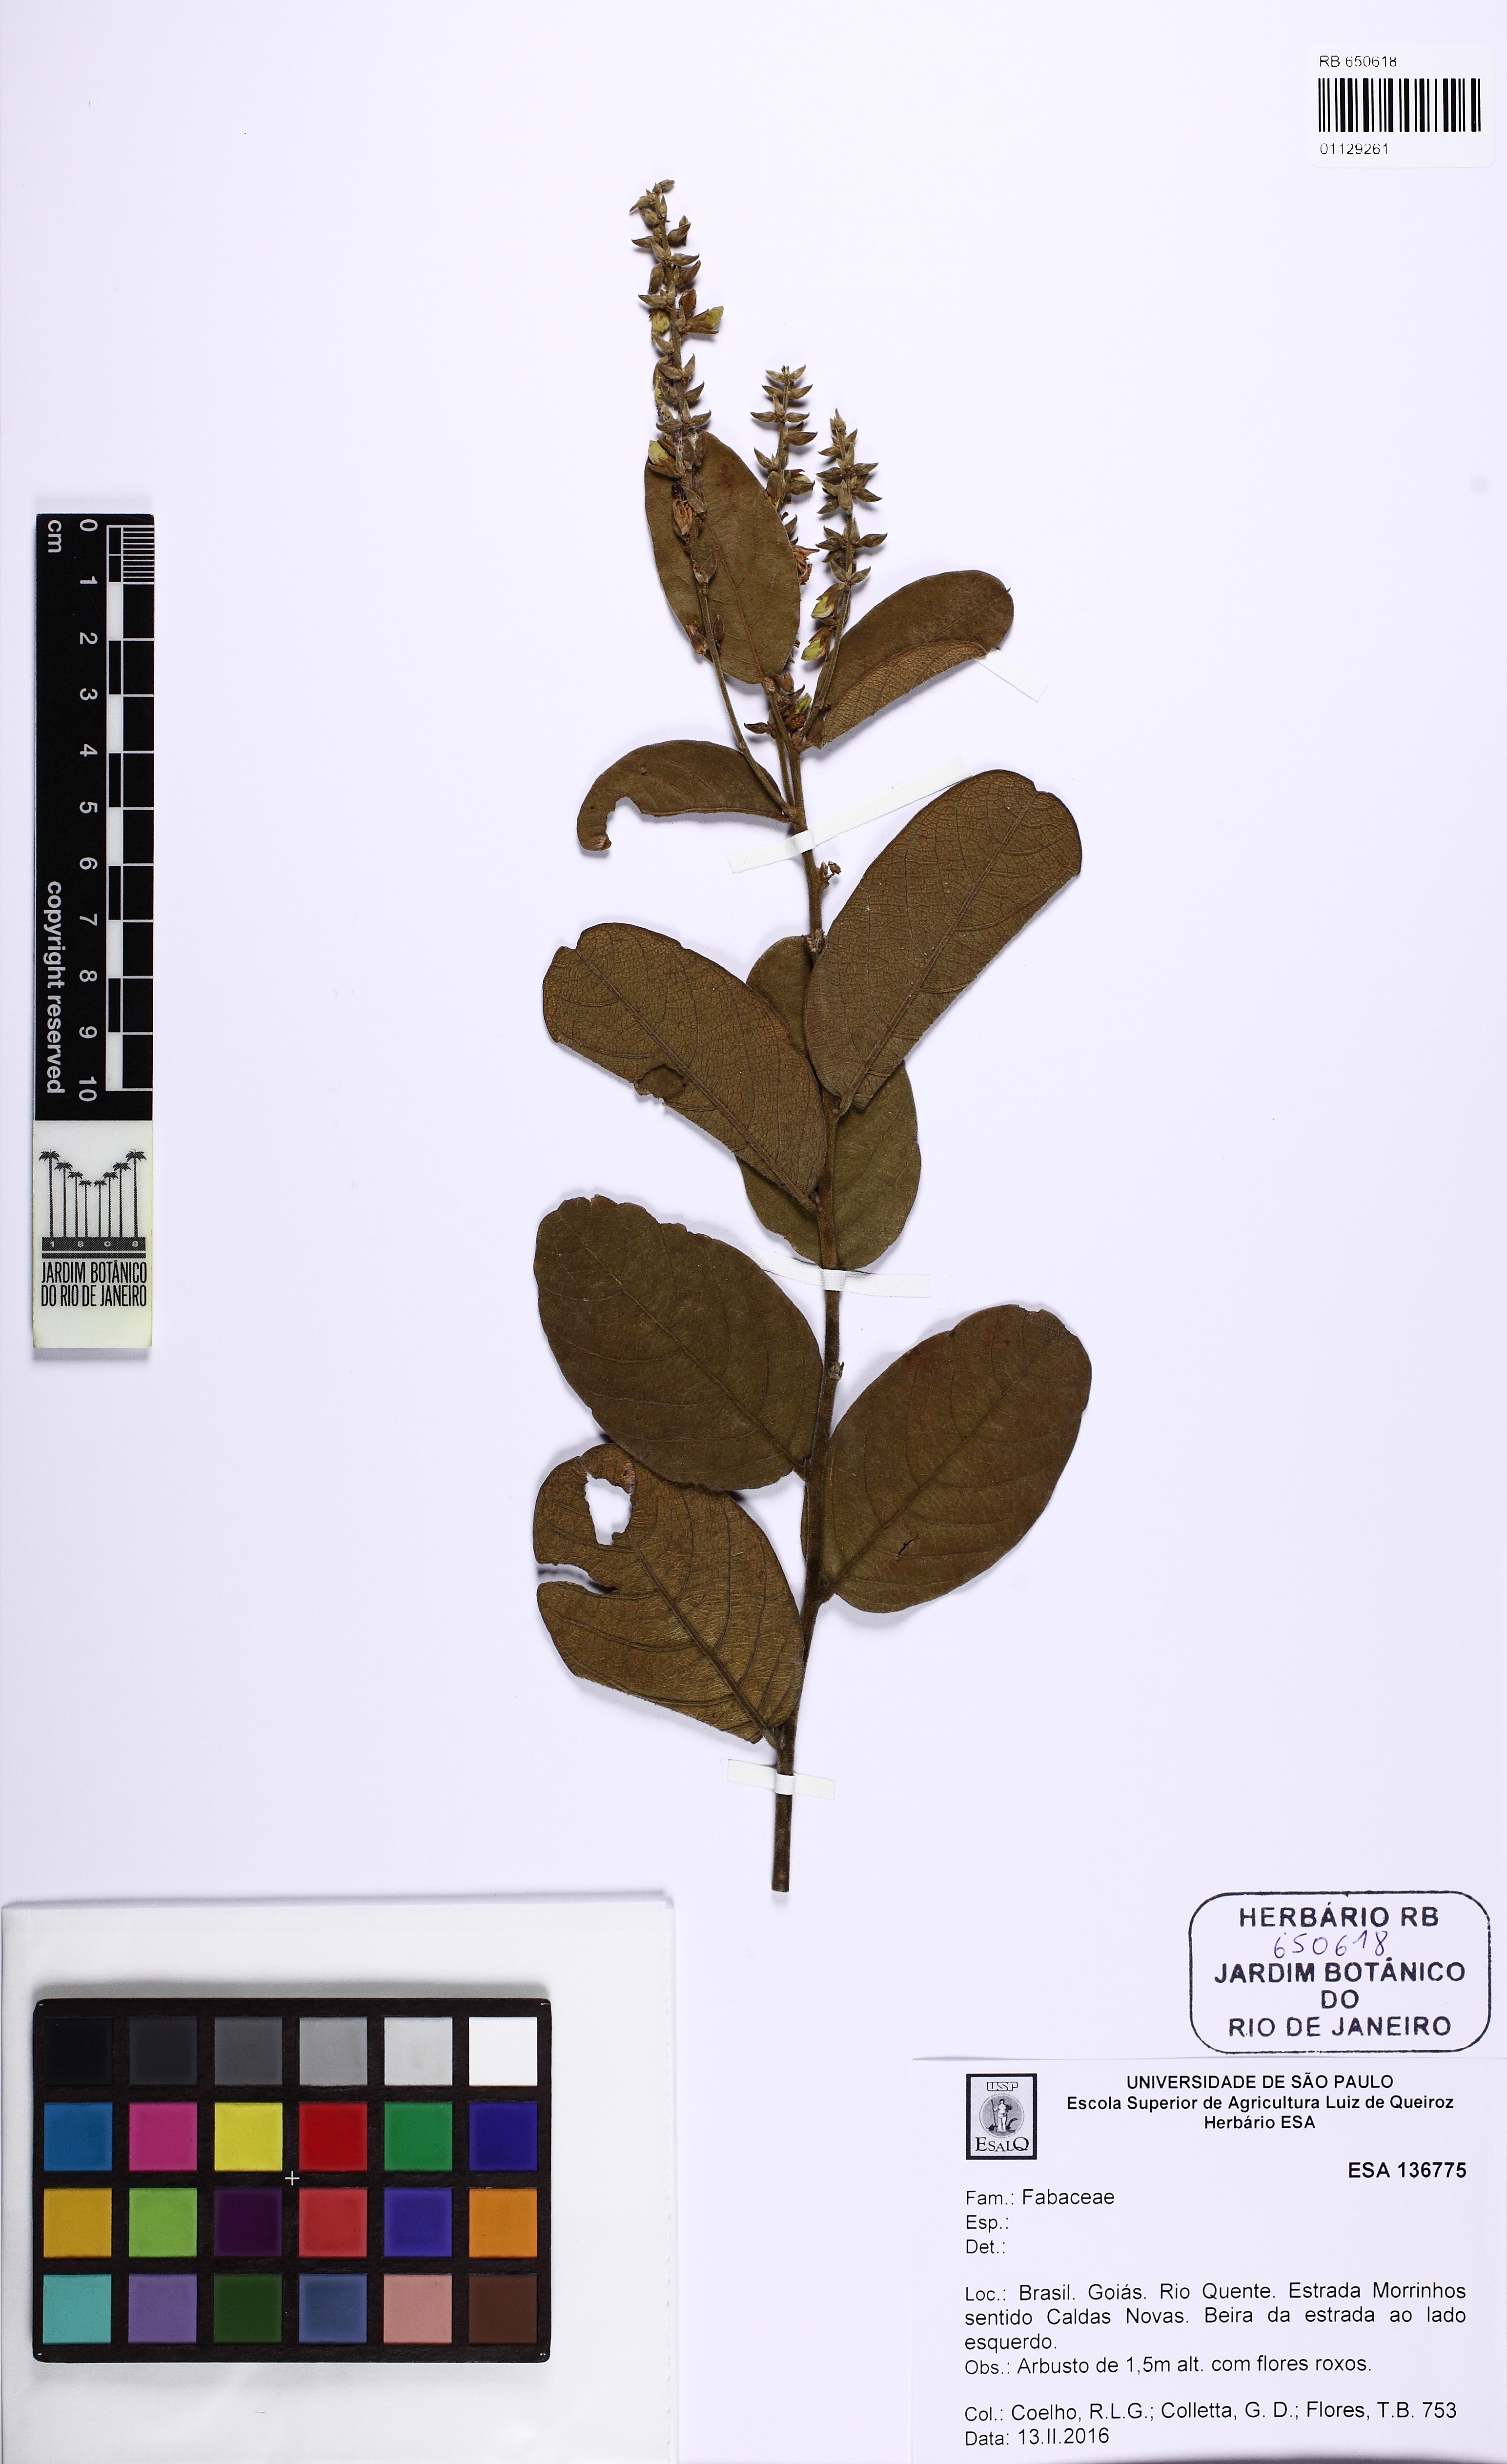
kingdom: Plantae
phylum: Tracheophyta
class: Magnoliopsida
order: Fabales
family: Fabaceae
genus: Cerradicola
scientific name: Cerradicola grewiifolia
